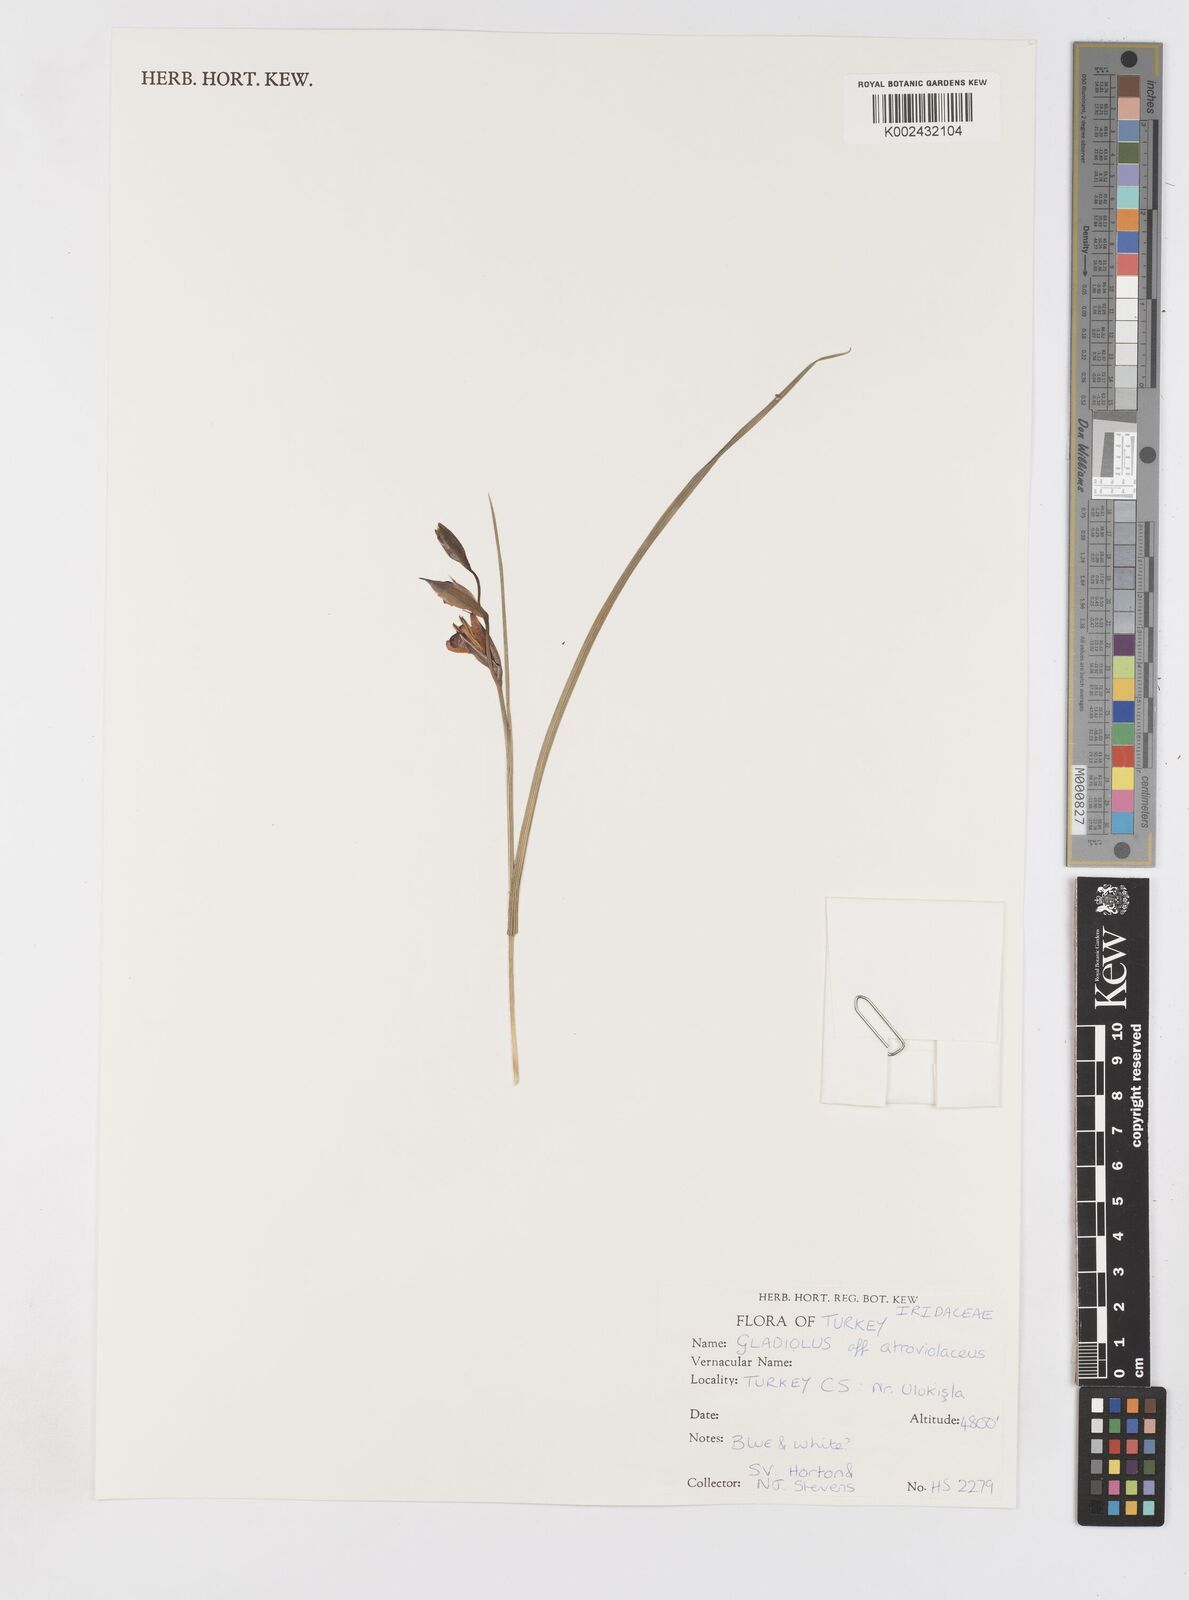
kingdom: Plantae
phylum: Tracheophyta
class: Liliopsida
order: Asparagales
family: Iridaceae
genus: Gladiolus
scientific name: Gladiolus atroviolaceus
